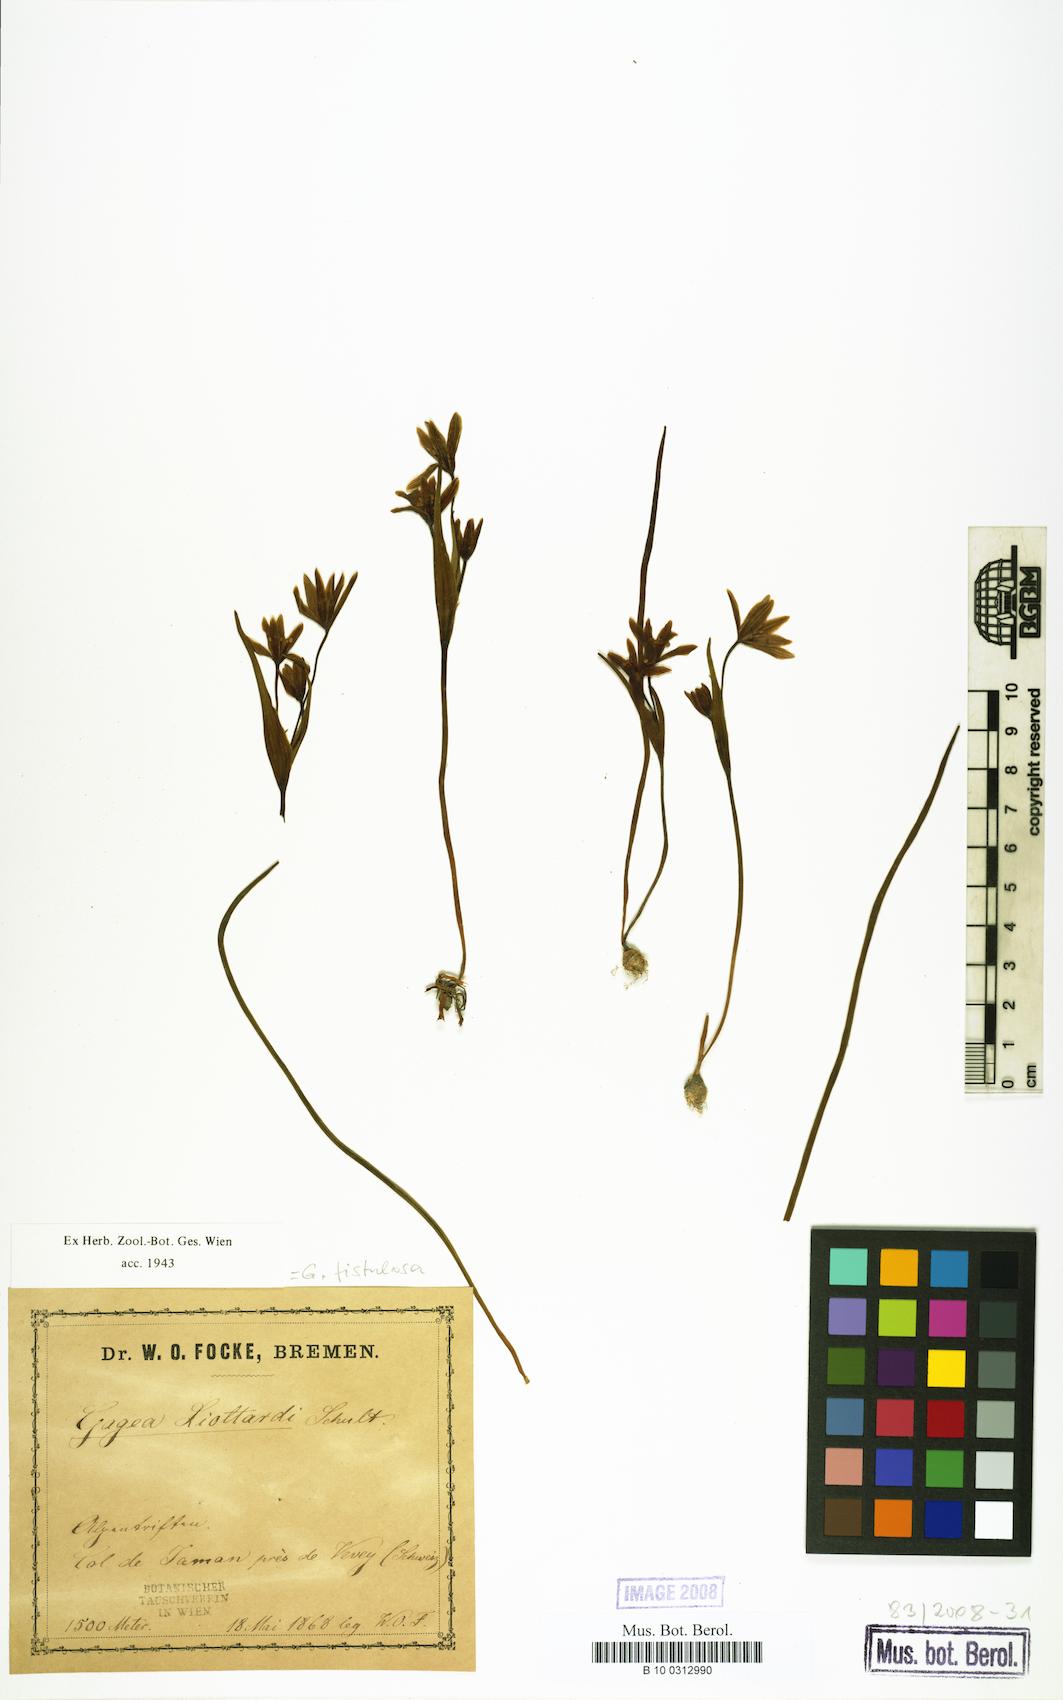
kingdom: Plantae
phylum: Tracheophyta
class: Liliopsida
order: Liliales
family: Liliaceae
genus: Gagea
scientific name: Gagea
